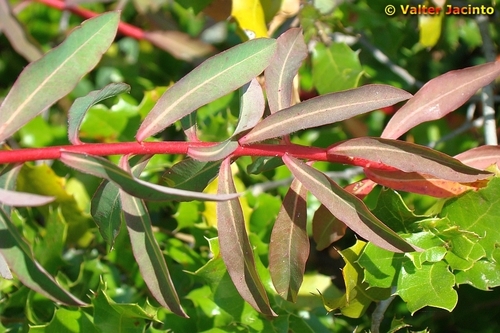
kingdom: Plantae
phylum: Tracheophyta
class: Magnoliopsida
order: Malpighiales
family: Euphorbiaceae
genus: Euphorbia
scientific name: Euphorbia clementei
